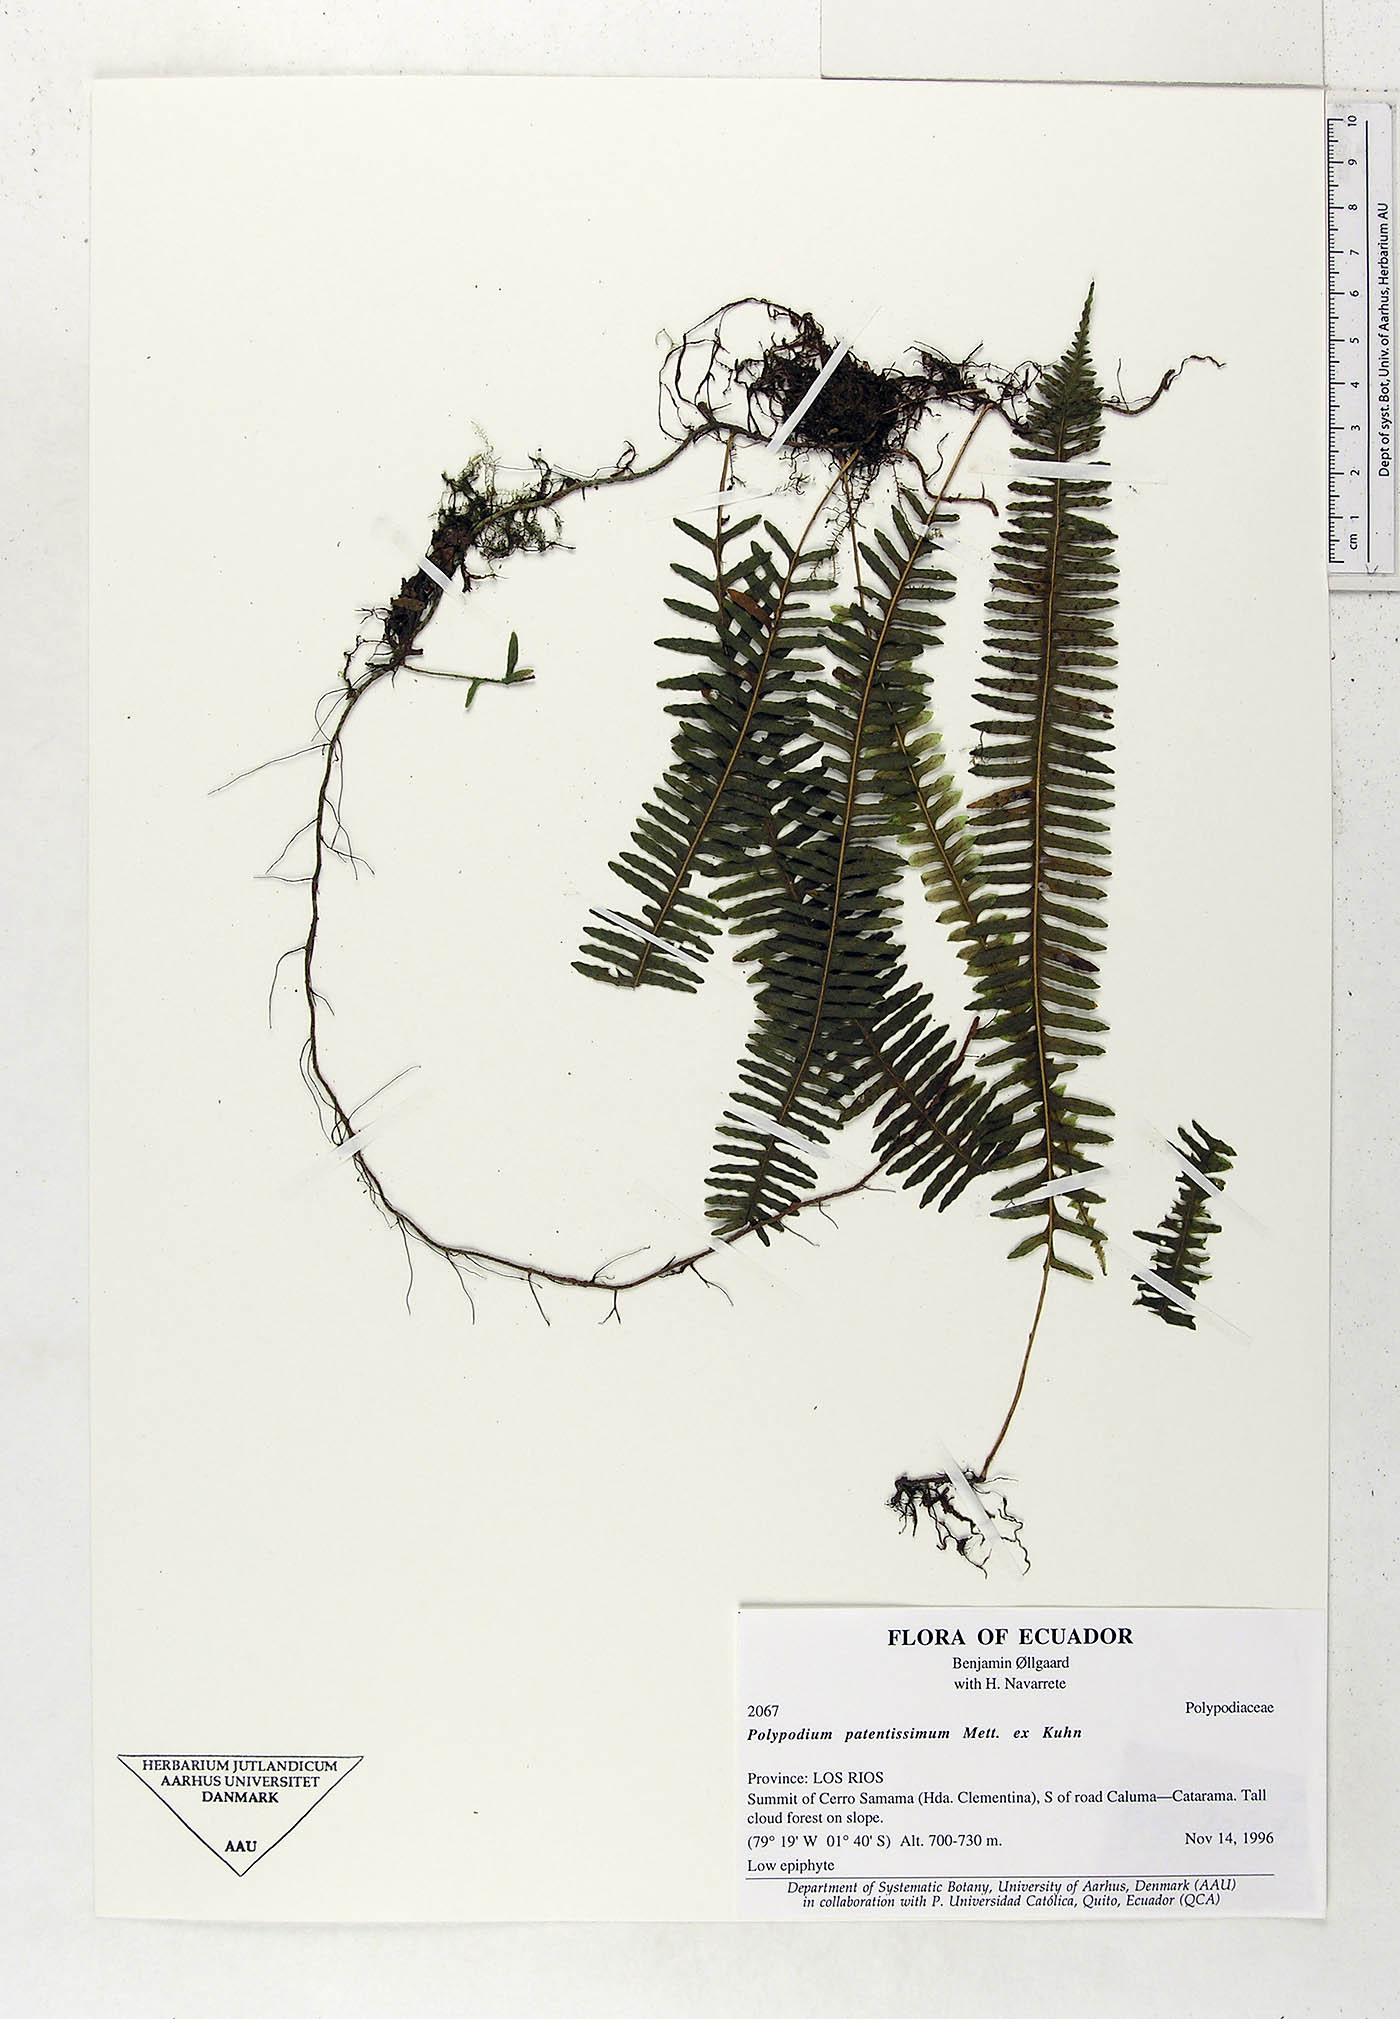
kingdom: Plantae
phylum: Tracheophyta
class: Polypodiopsida
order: Polypodiales
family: Polypodiaceae
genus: Serpocaulon
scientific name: Serpocaulon patentissimum
